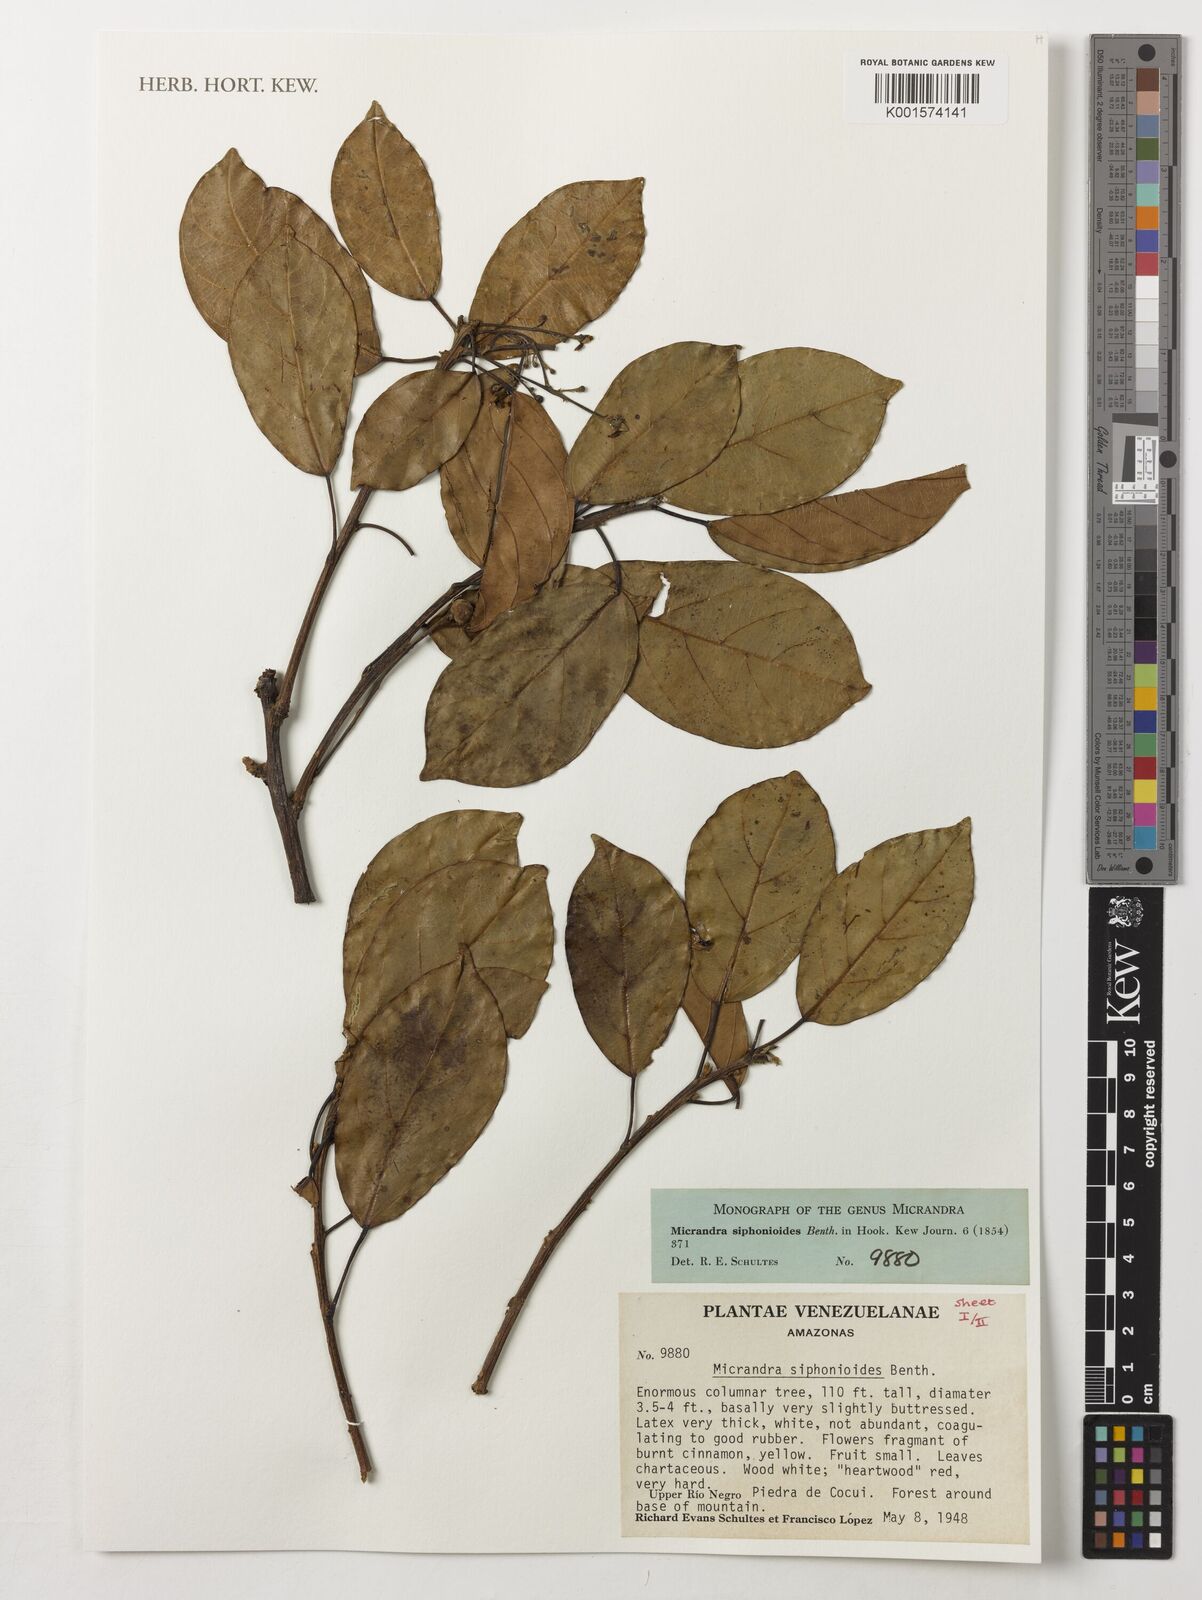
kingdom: Plantae
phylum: Tracheophyta
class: Magnoliopsida
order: Malpighiales
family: Euphorbiaceae
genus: Micrandra
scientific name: Micrandra siphonioides
